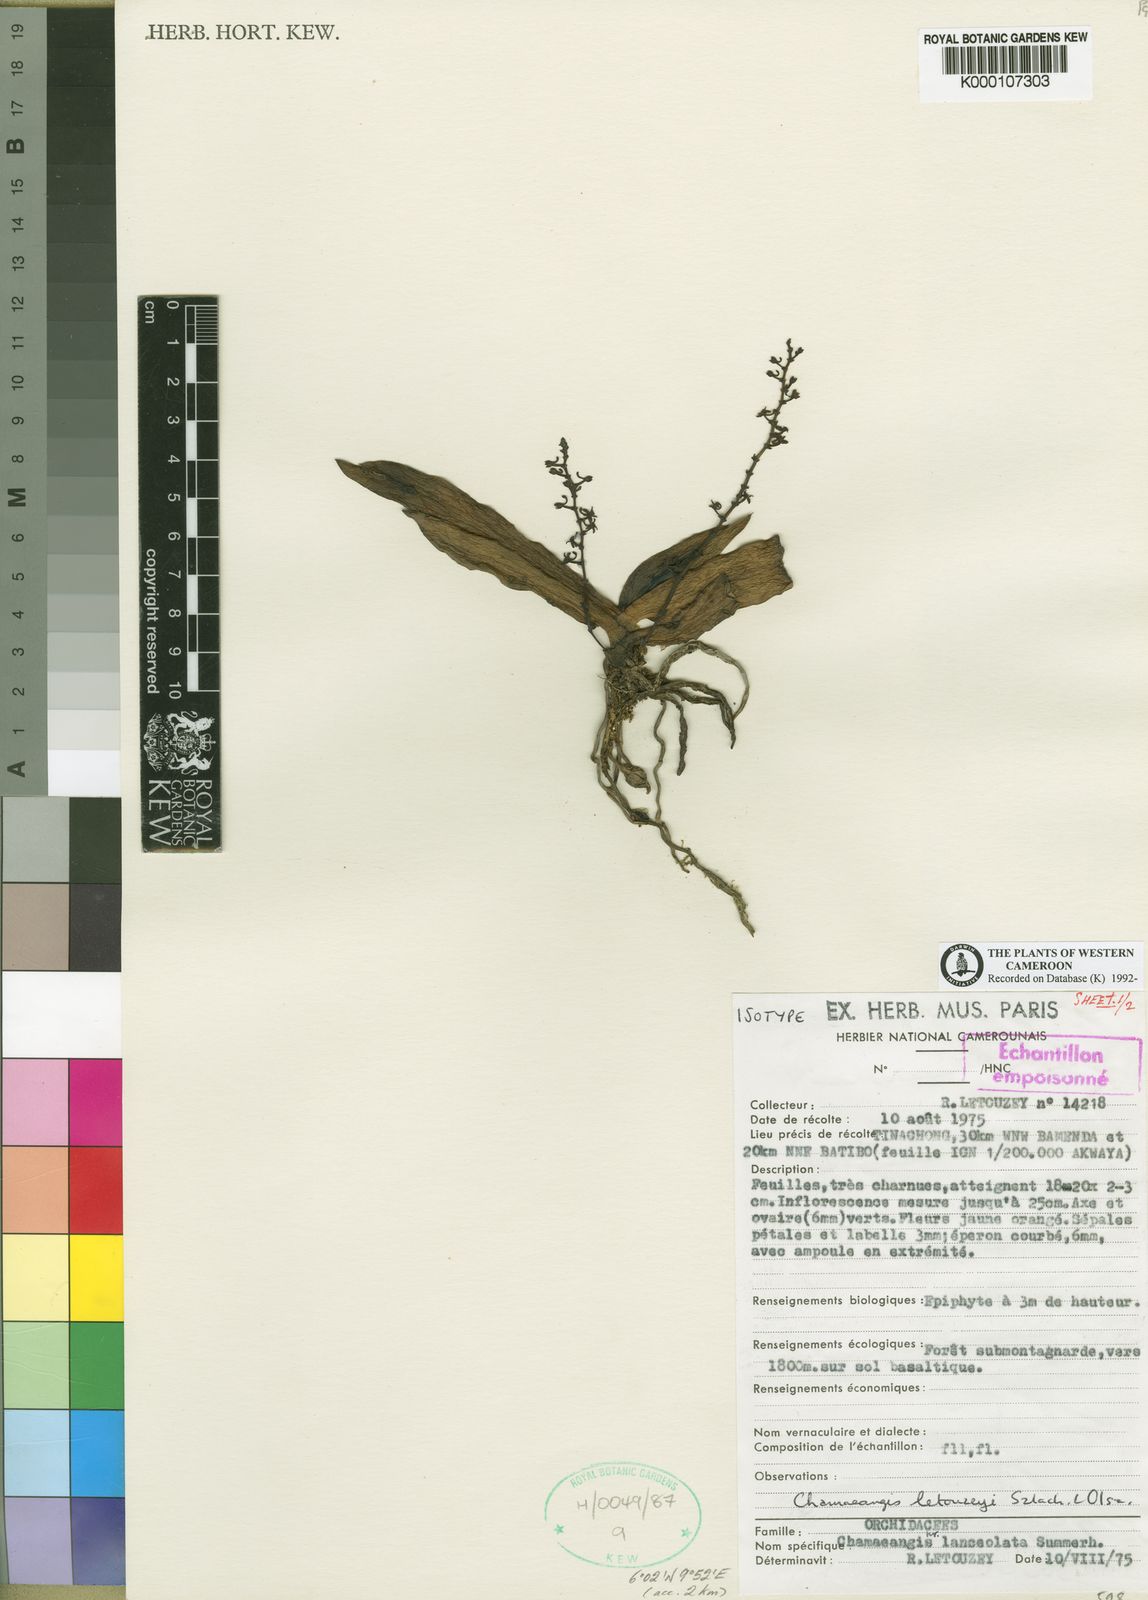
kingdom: Plantae
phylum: Tracheophyta
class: Liliopsida
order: Asparagales
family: Orchidaceae
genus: Diaphananthe
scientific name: Diaphananthe letouzeyi
